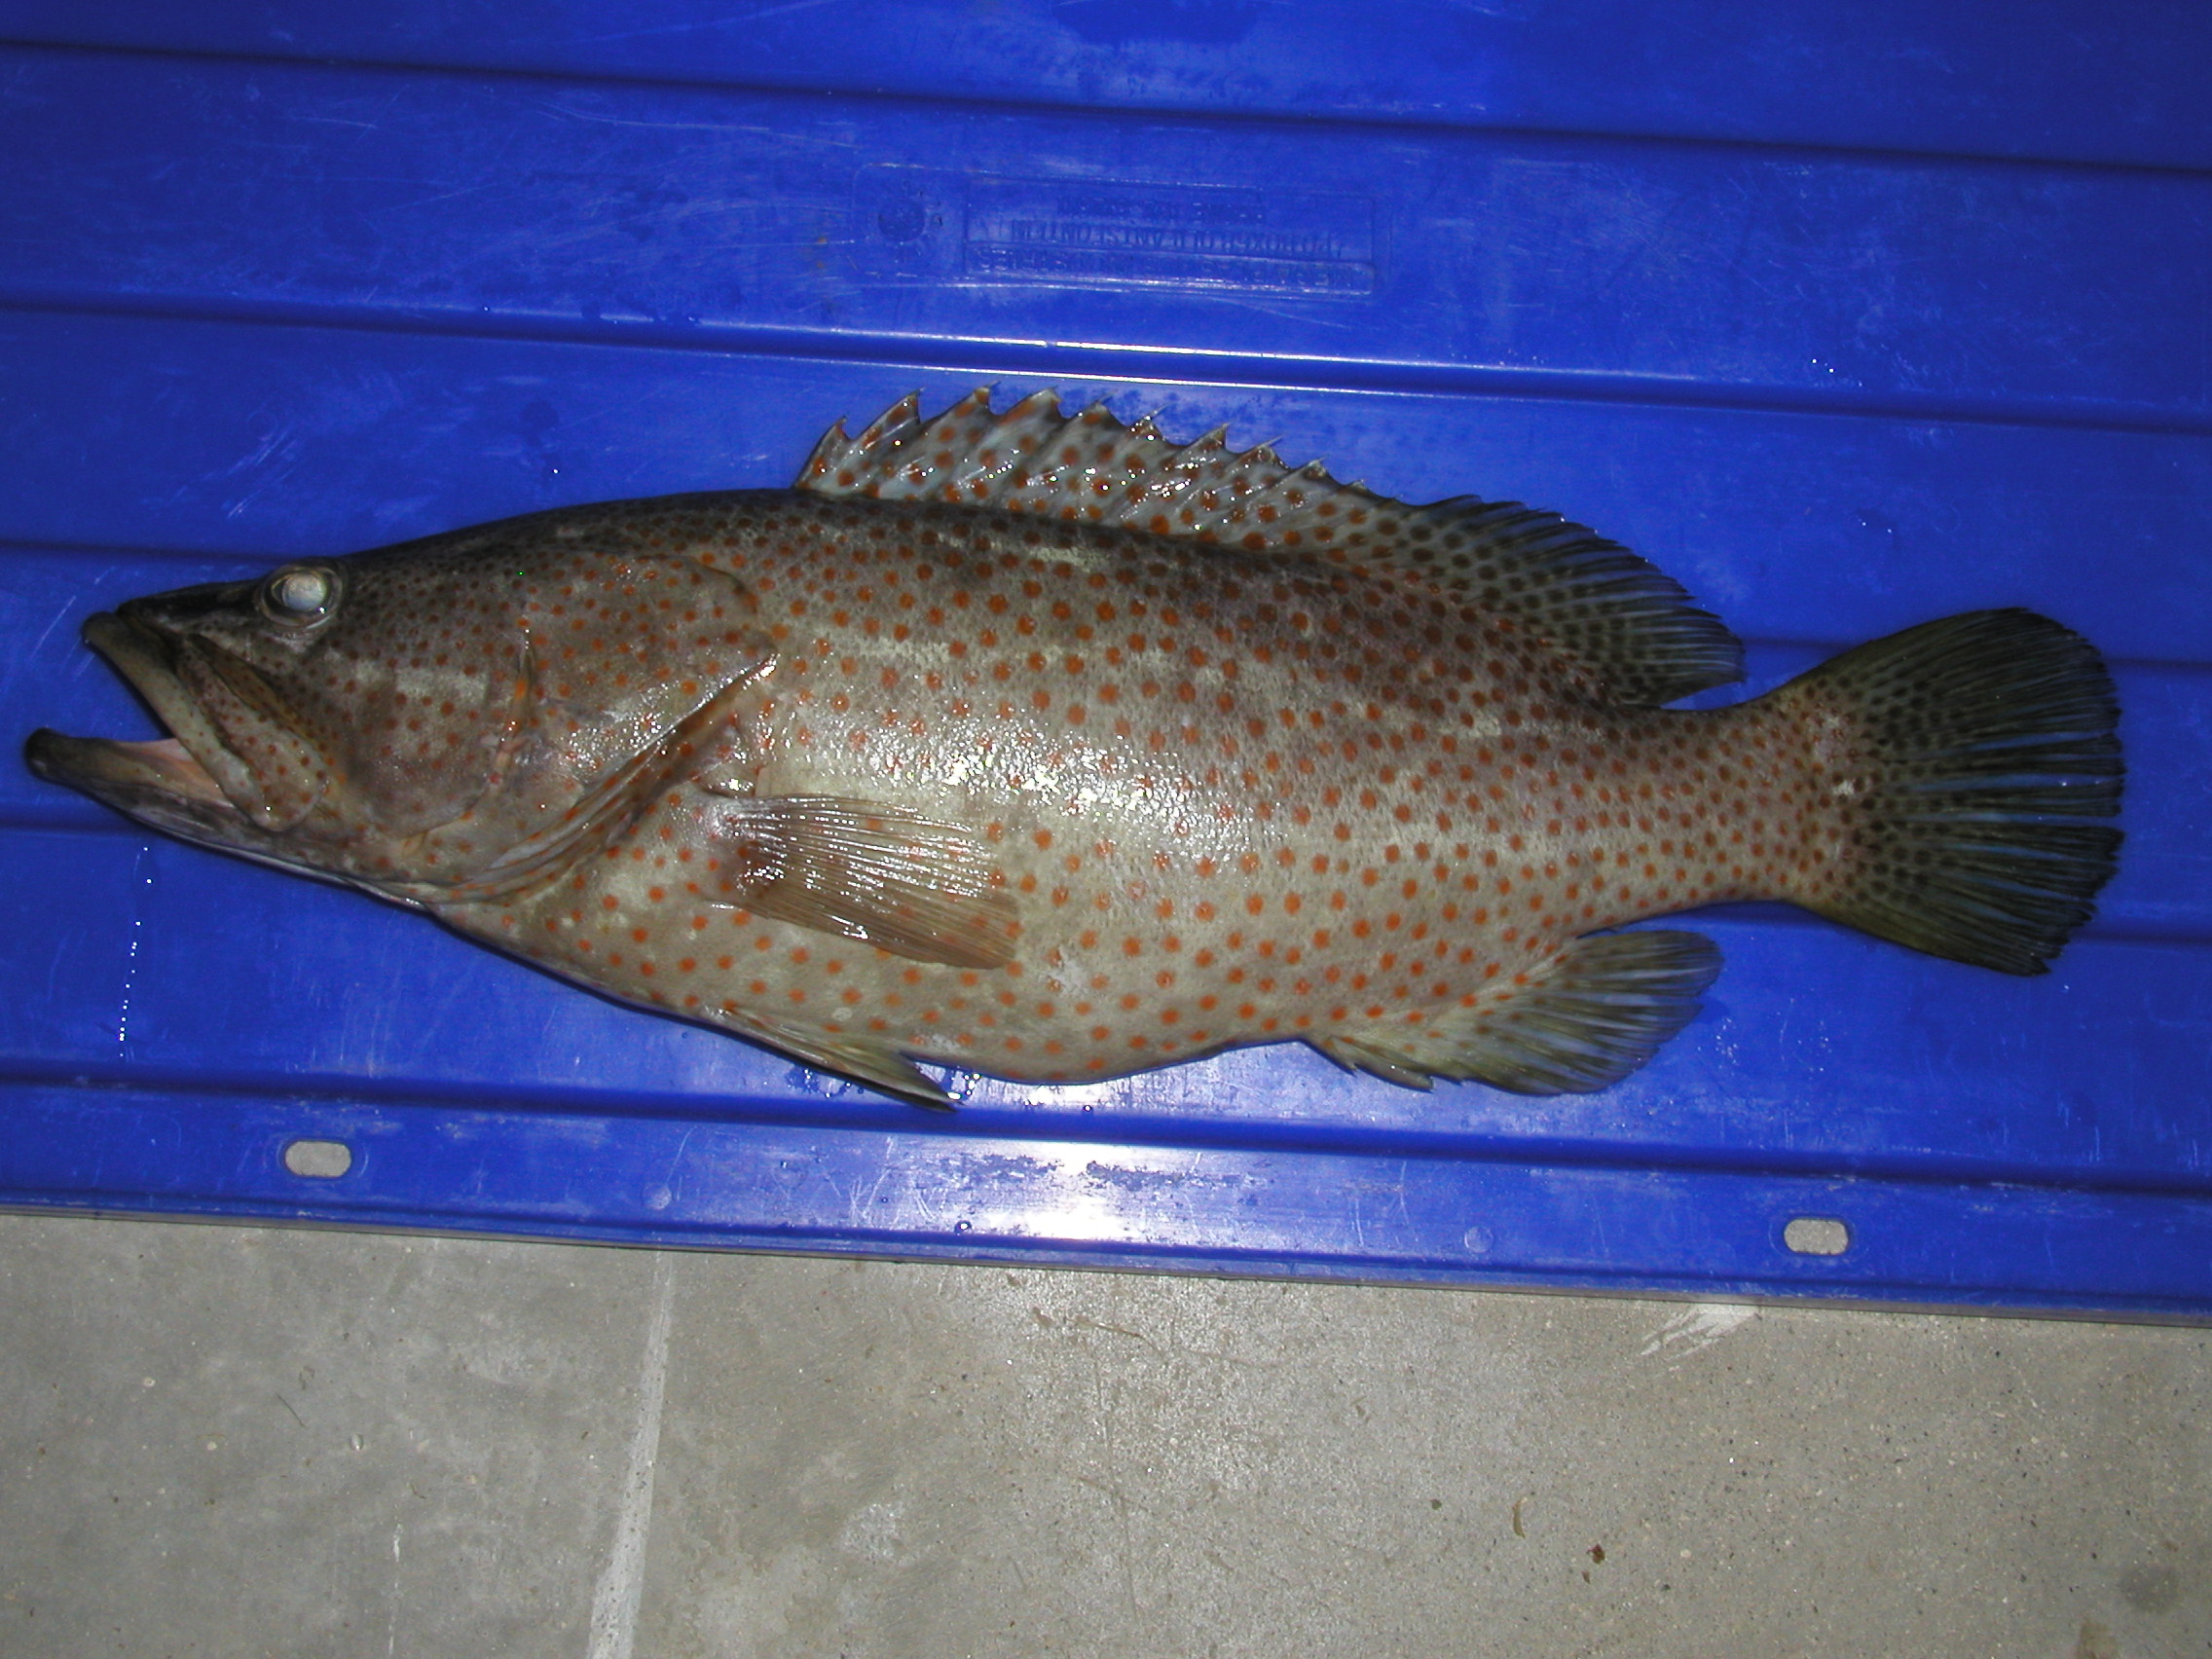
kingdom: Animalia
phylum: Chordata
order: Perciformes
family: Serranidae
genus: Anyperodon
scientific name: Anyperodon leucogrammicus
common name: Slender grouper
